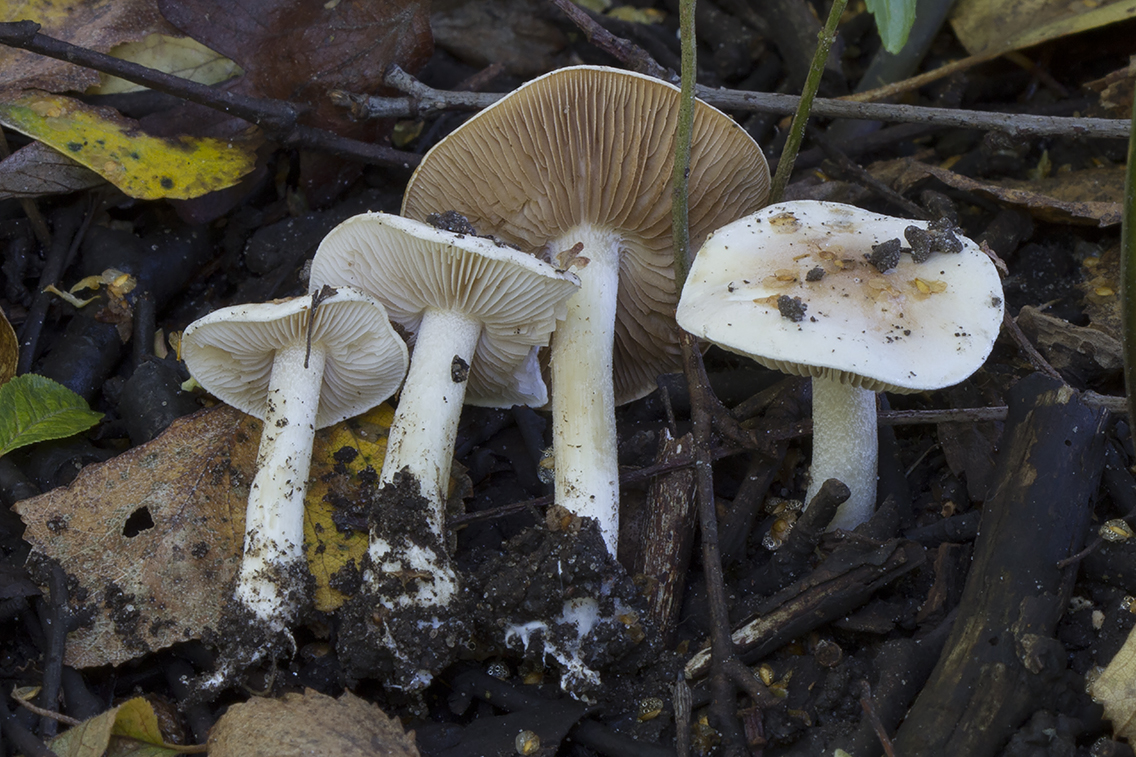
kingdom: Fungi
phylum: Basidiomycota
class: Agaricomycetes
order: Agaricales
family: Hymenogastraceae
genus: Hebeloma
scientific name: Hebeloma pseudofragilipes
